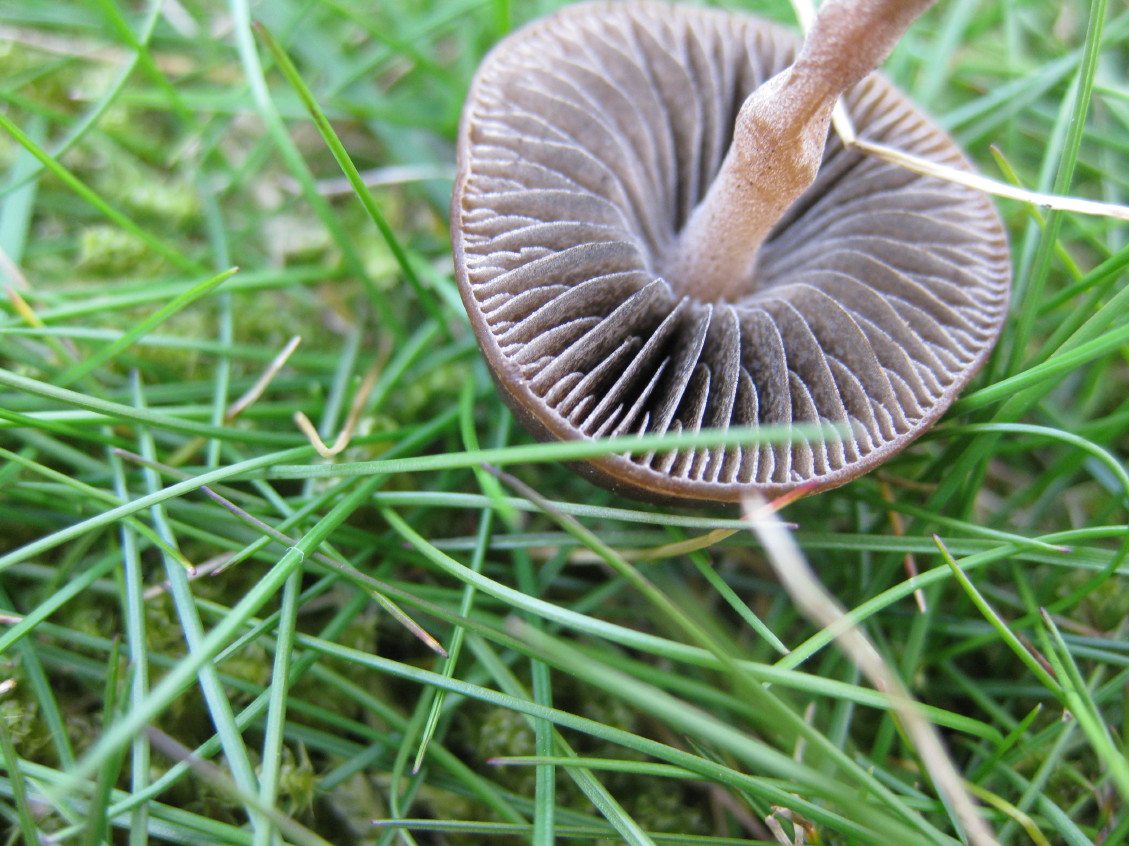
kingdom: Fungi
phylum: Basidiomycota
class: Agaricomycetes
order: Agaricales
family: Bolbitiaceae
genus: Panaeolus
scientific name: Panaeolus fimicola
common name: tidlig glanshat
